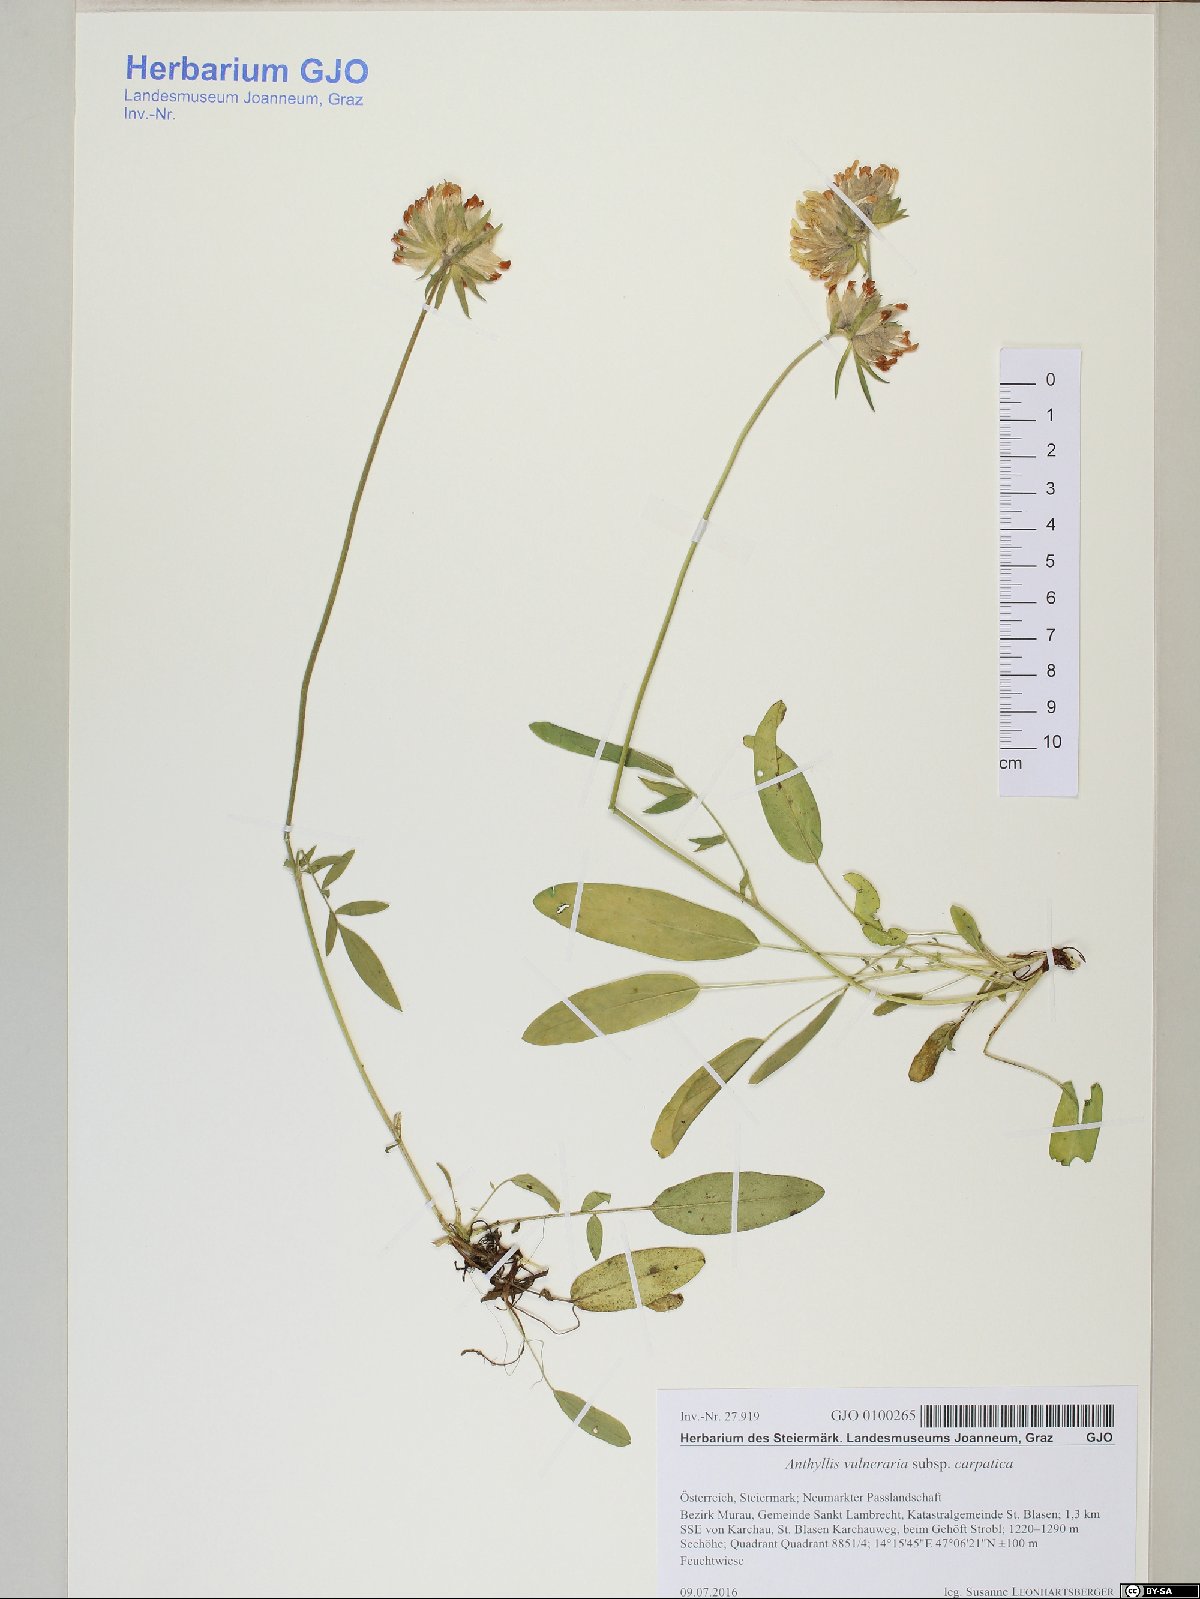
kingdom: Plantae
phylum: Tracheophyta
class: Magnoliopsida
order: Fabales
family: Fabaceae
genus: Anthyllis
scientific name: Anthyllis vulneraria
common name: Kidney vetch
